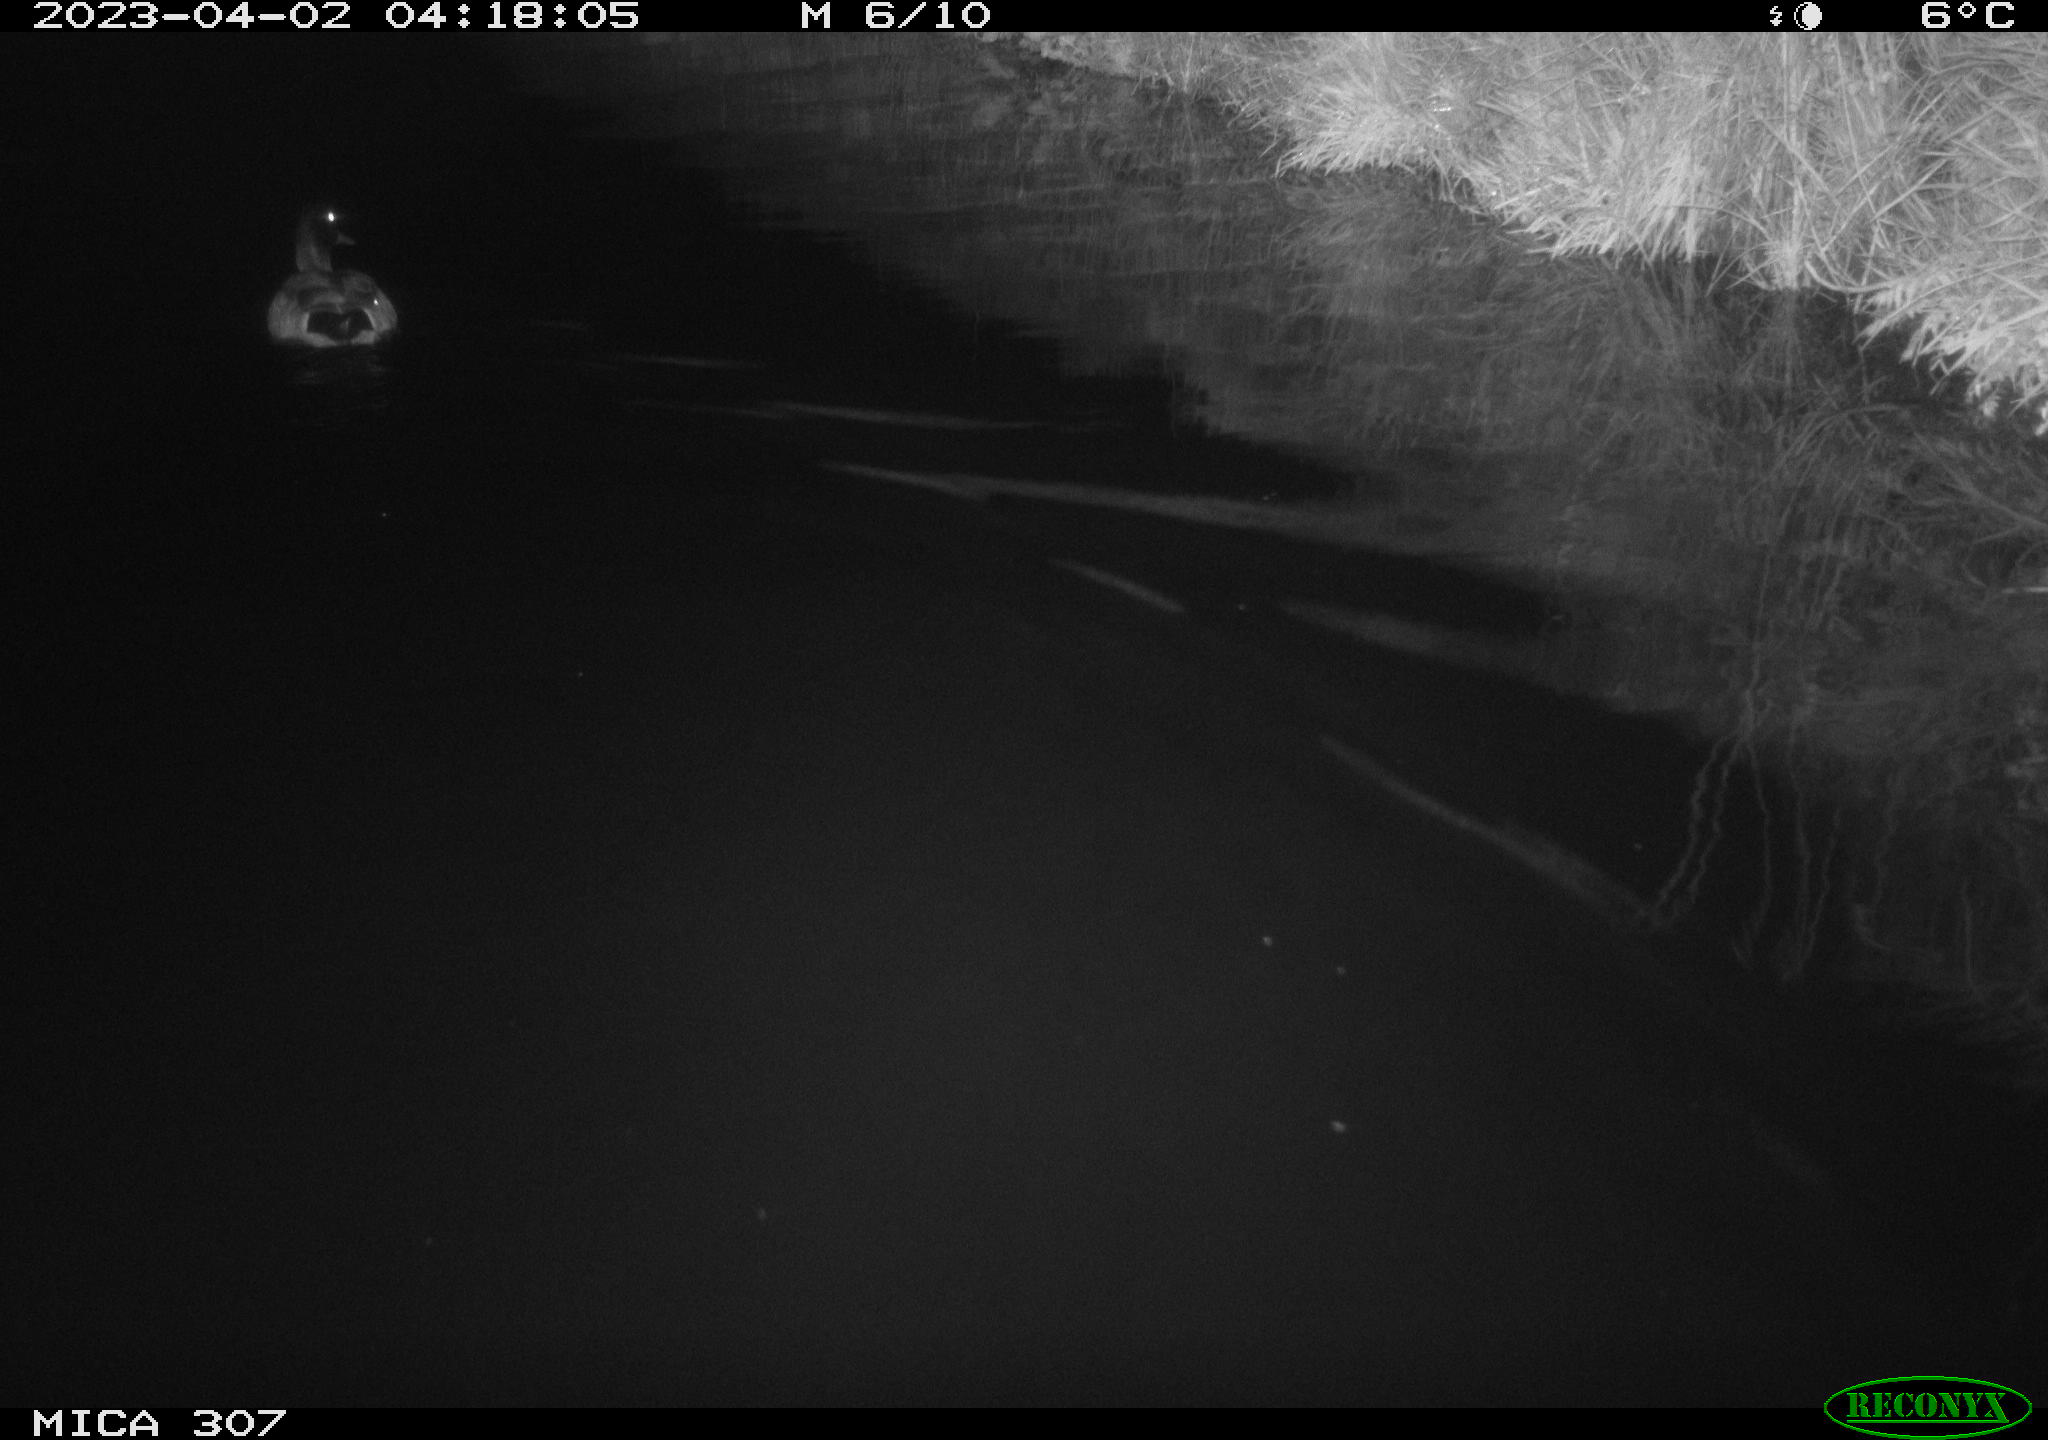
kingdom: Animalia
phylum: Chordata
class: Aves
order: Anseriformes
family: Anatidae
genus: Anas
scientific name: Anas
